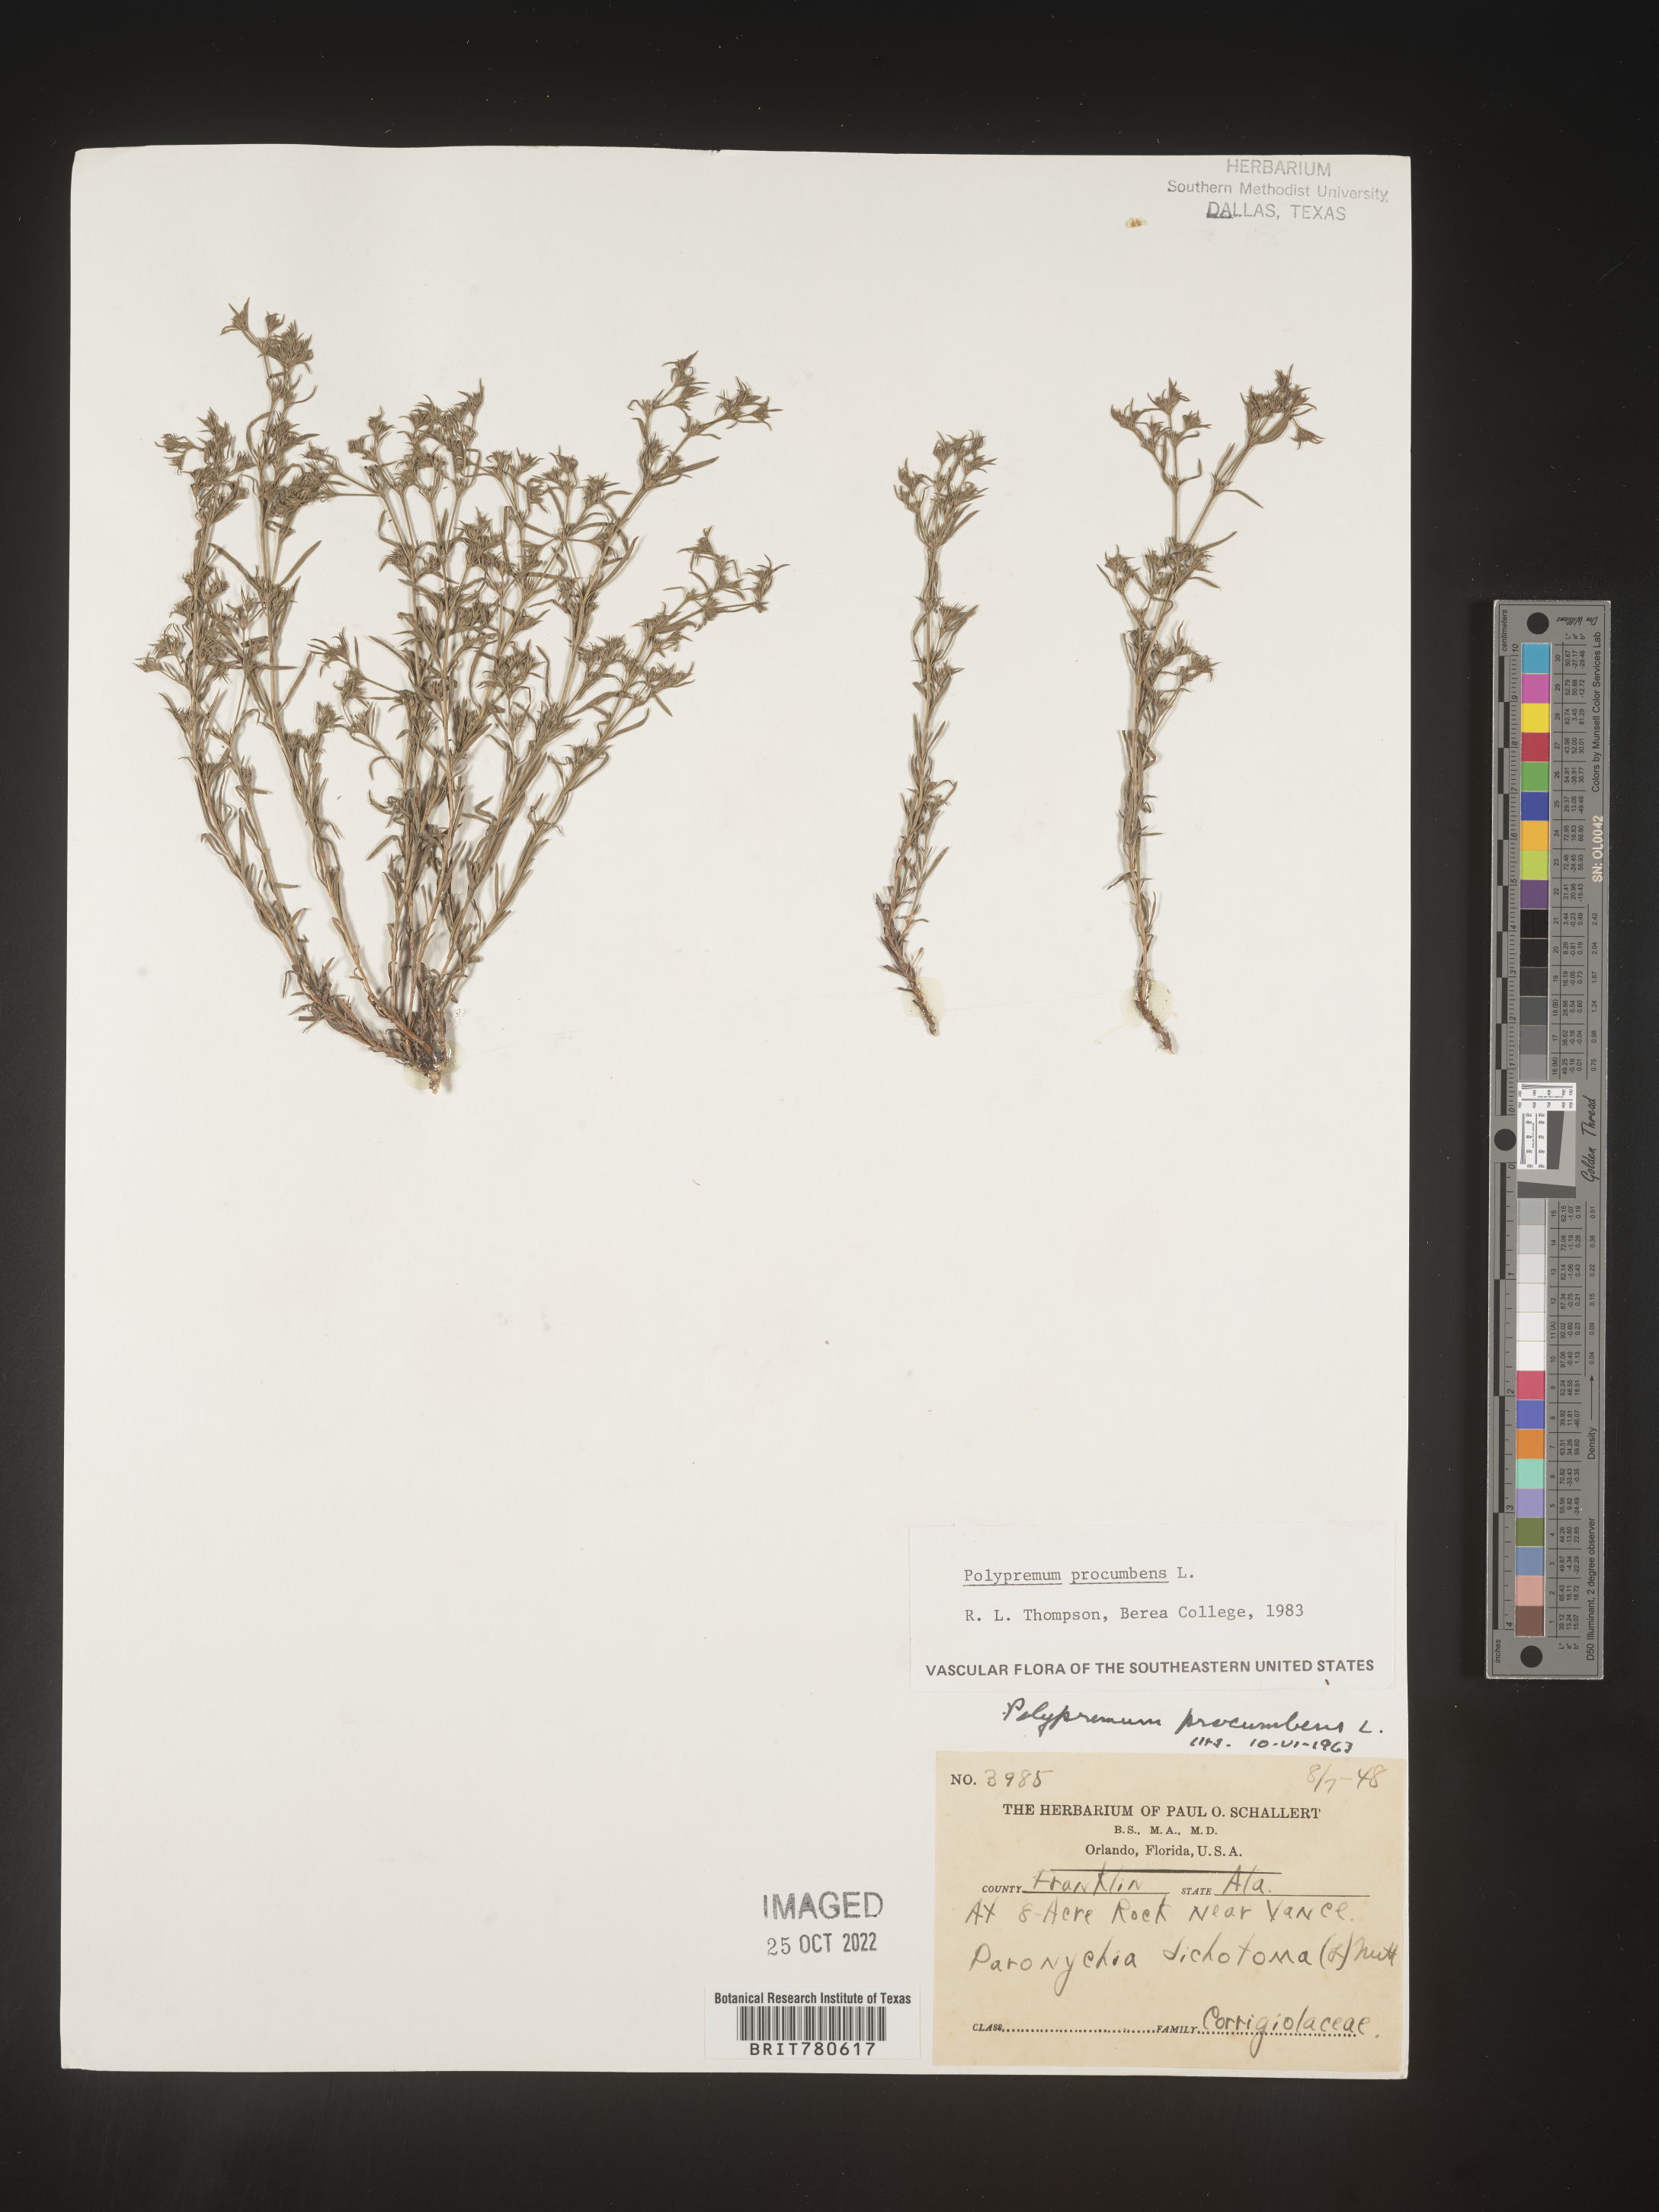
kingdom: Plantae
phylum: Tracheophyta
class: Magnoliopsida
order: Lamiales
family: Tetrachondraceae
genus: Polypremum
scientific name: Polypremum procumbens
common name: Juniper-leaf
